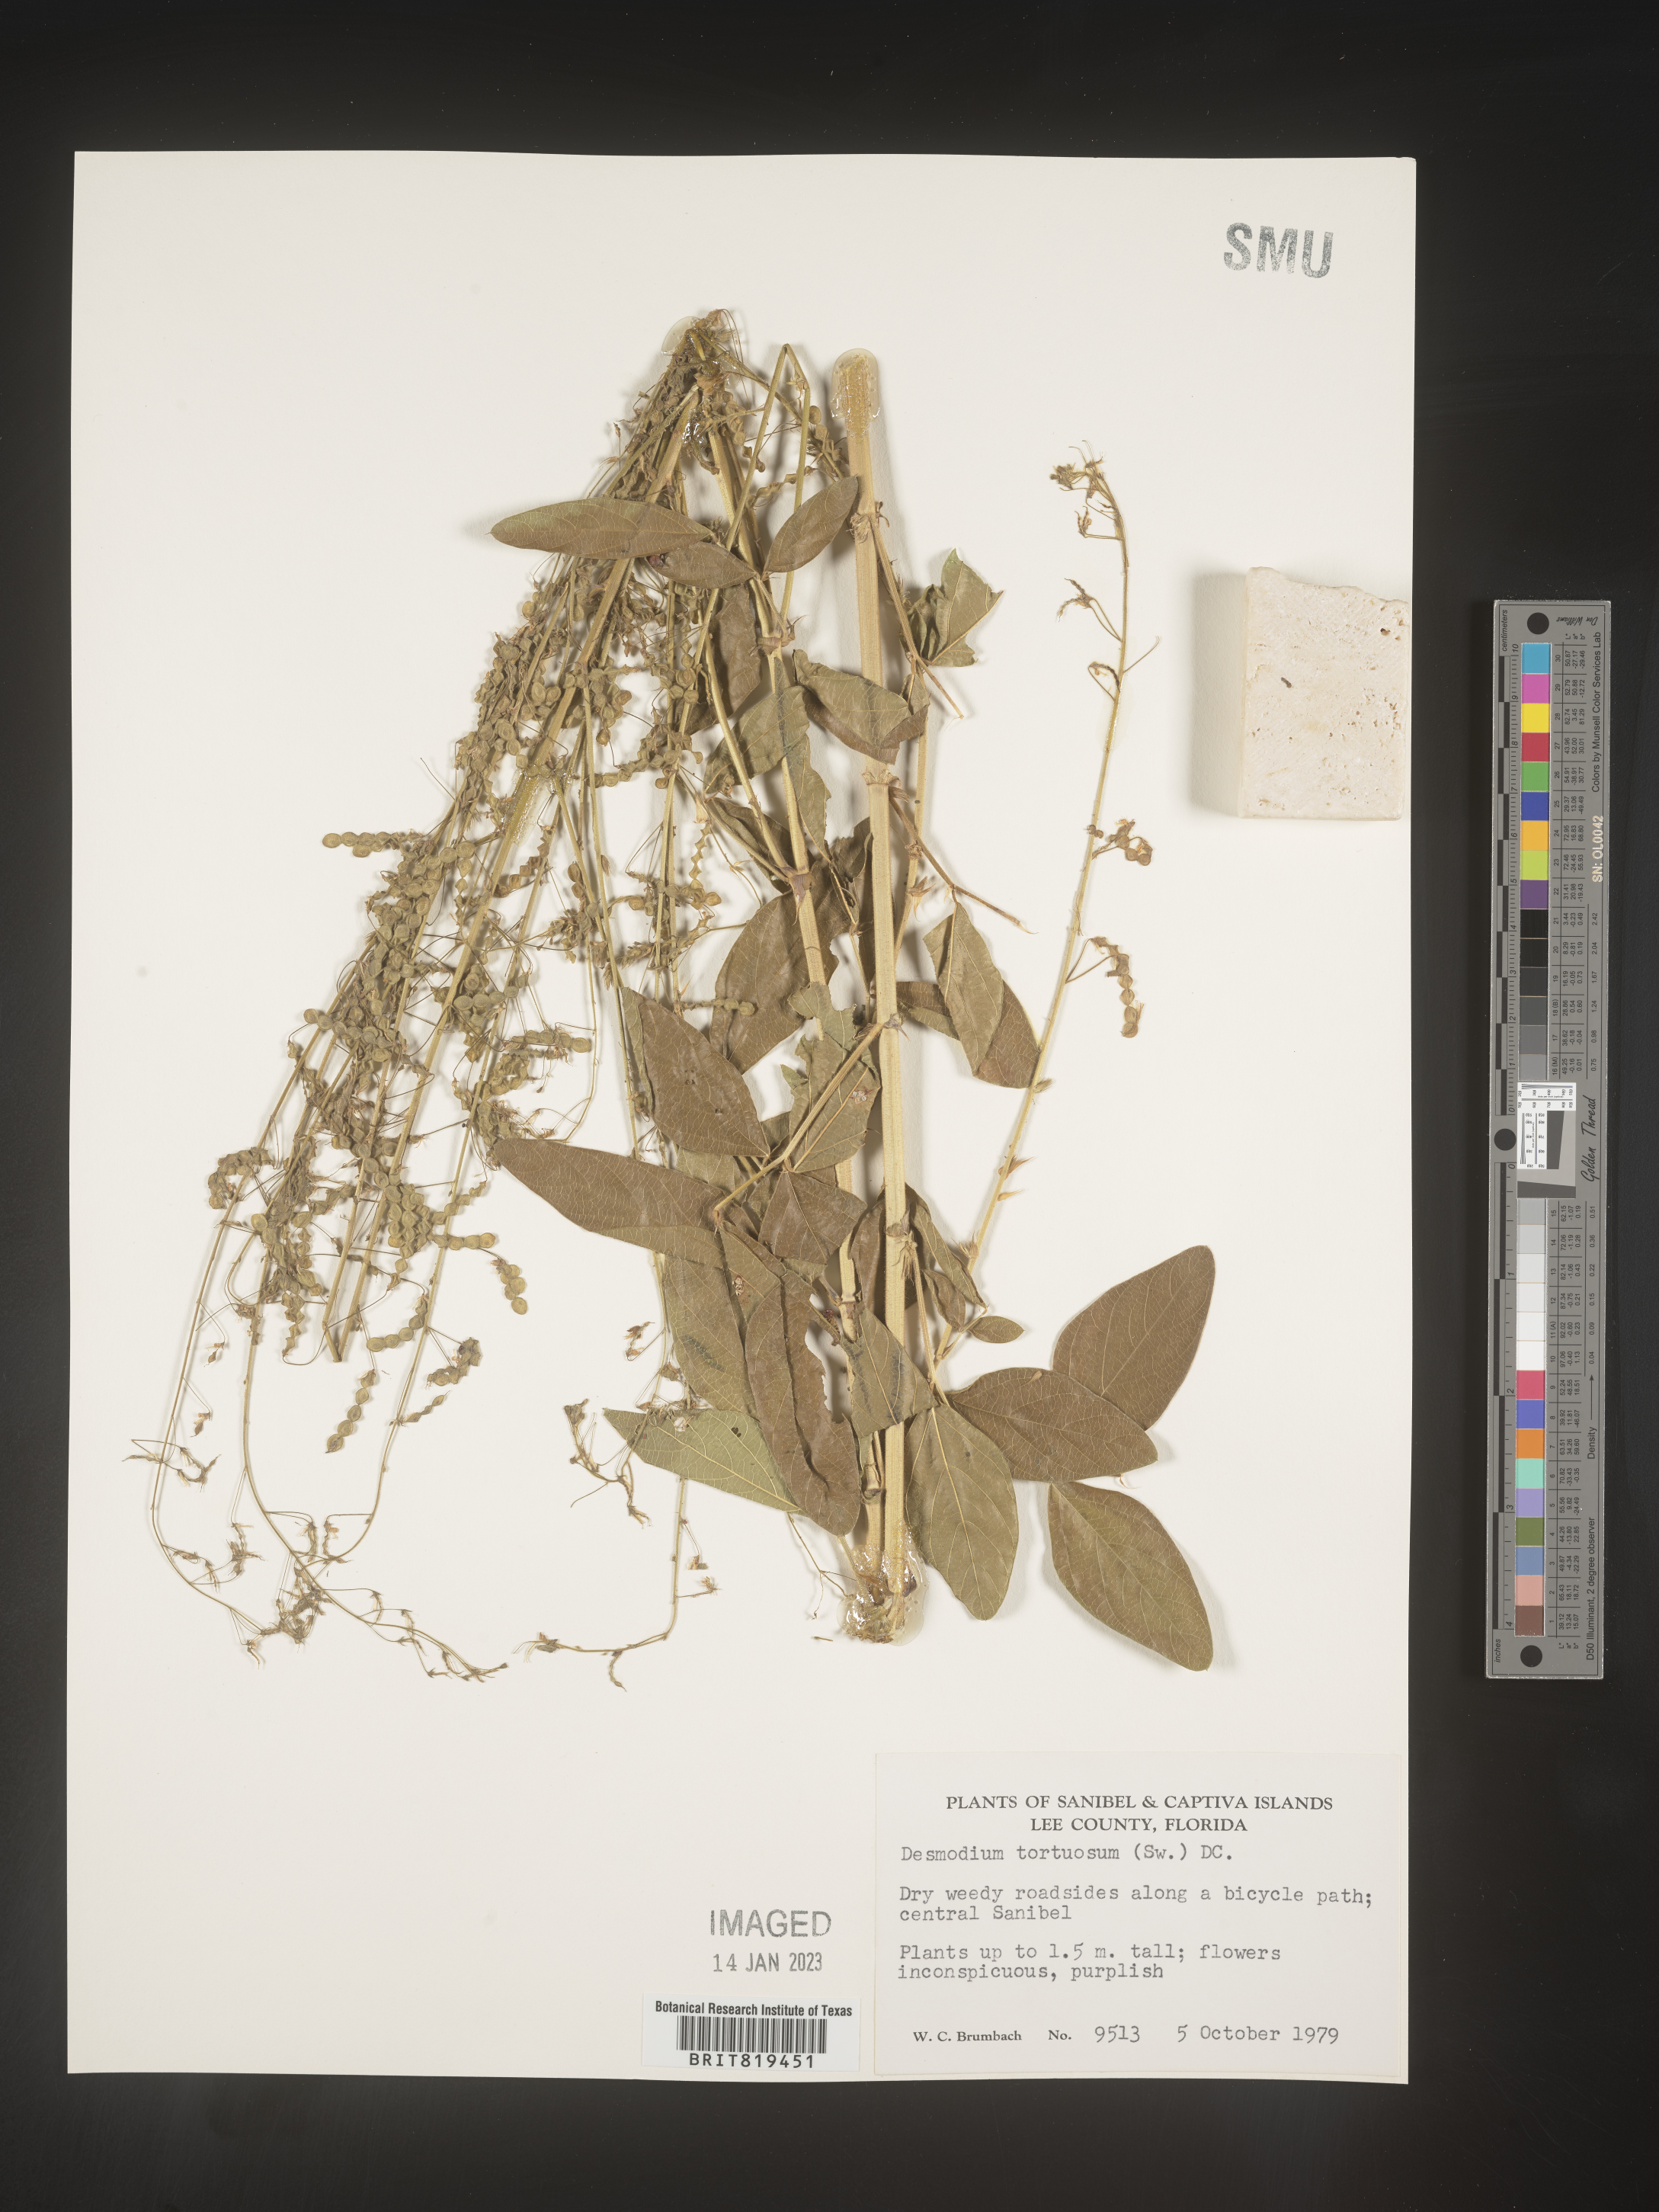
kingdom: Plantae
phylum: Tracheophyta
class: Magnoliopsida
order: Fabales
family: Fabaceae
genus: Desmodium
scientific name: Desmodium tortuosum
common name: Dixie ticktrefoil
